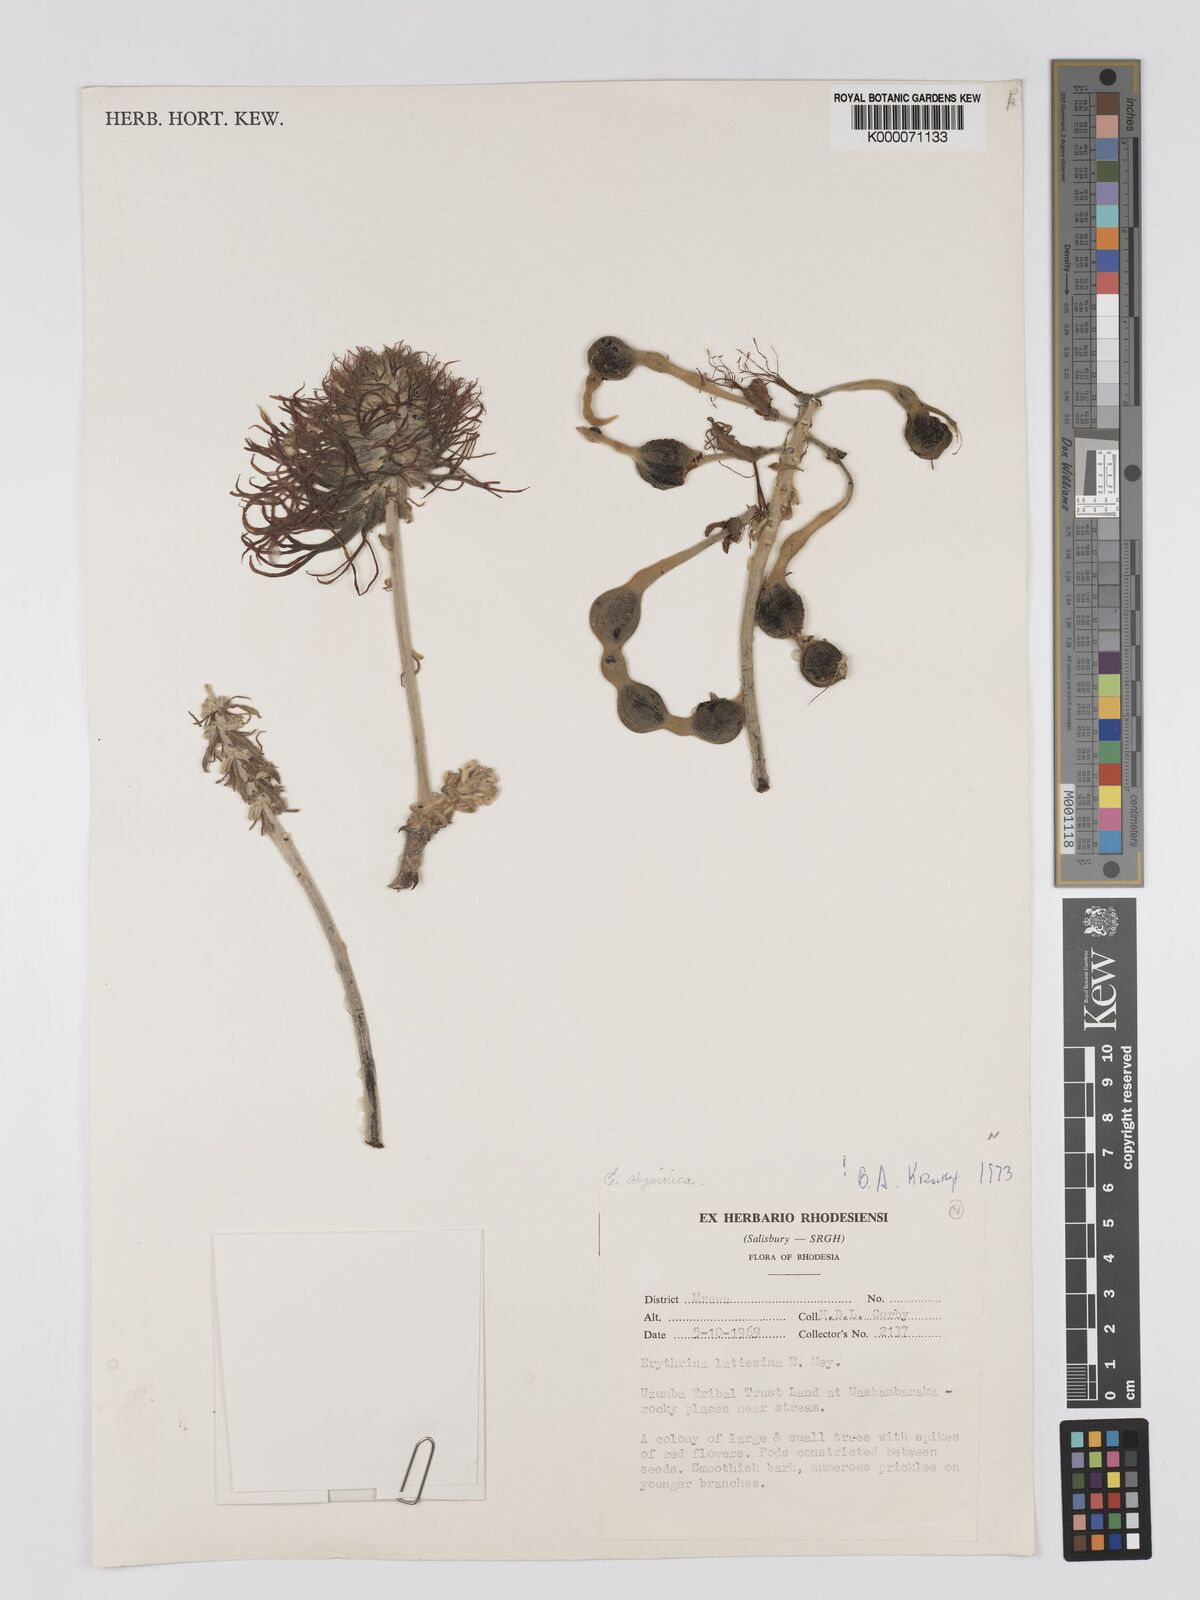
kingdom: Plantae
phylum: Tracheophyta
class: Magnoliopsida
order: Fabales
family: Fabaceae
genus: Erythrina
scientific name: Erythrina latissima
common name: Broad-leaved coral tree
